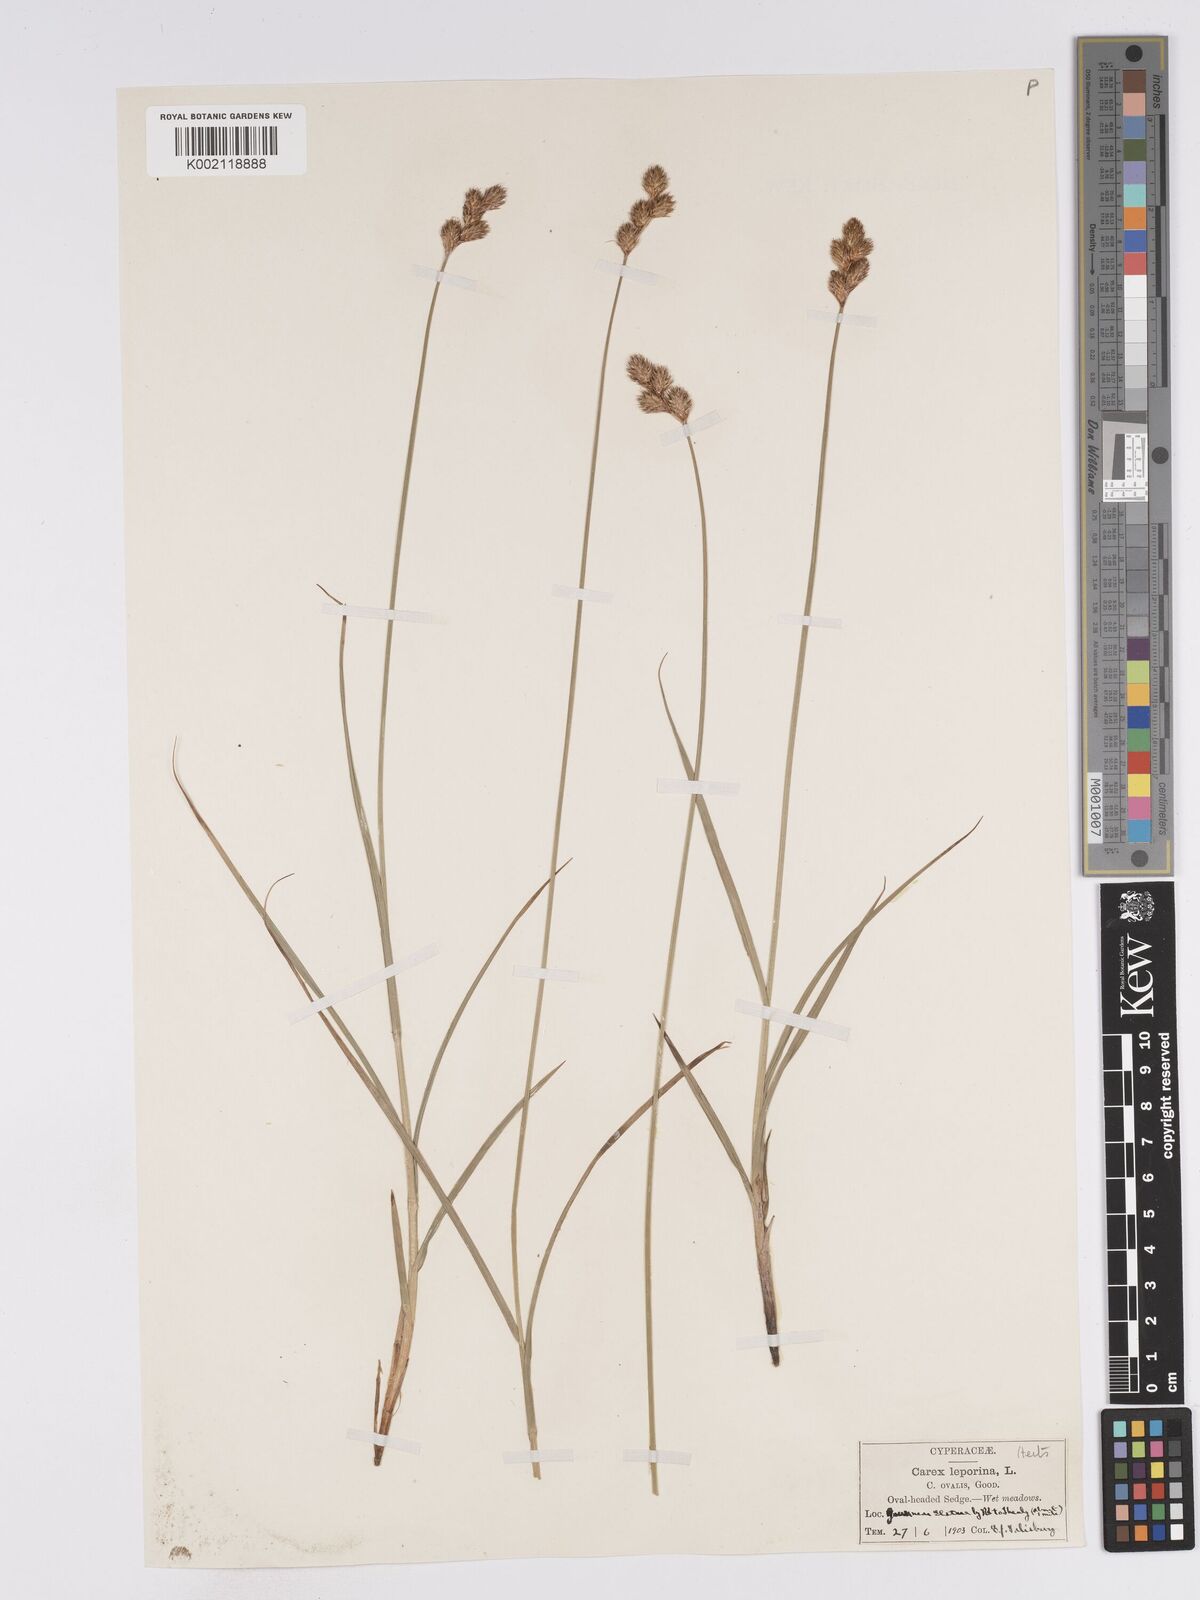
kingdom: Plantae
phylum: Tracheophyta
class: Liliopsida
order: Poales
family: Cyperaceae
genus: Carex
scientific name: Carex leporina
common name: Oval sedge
